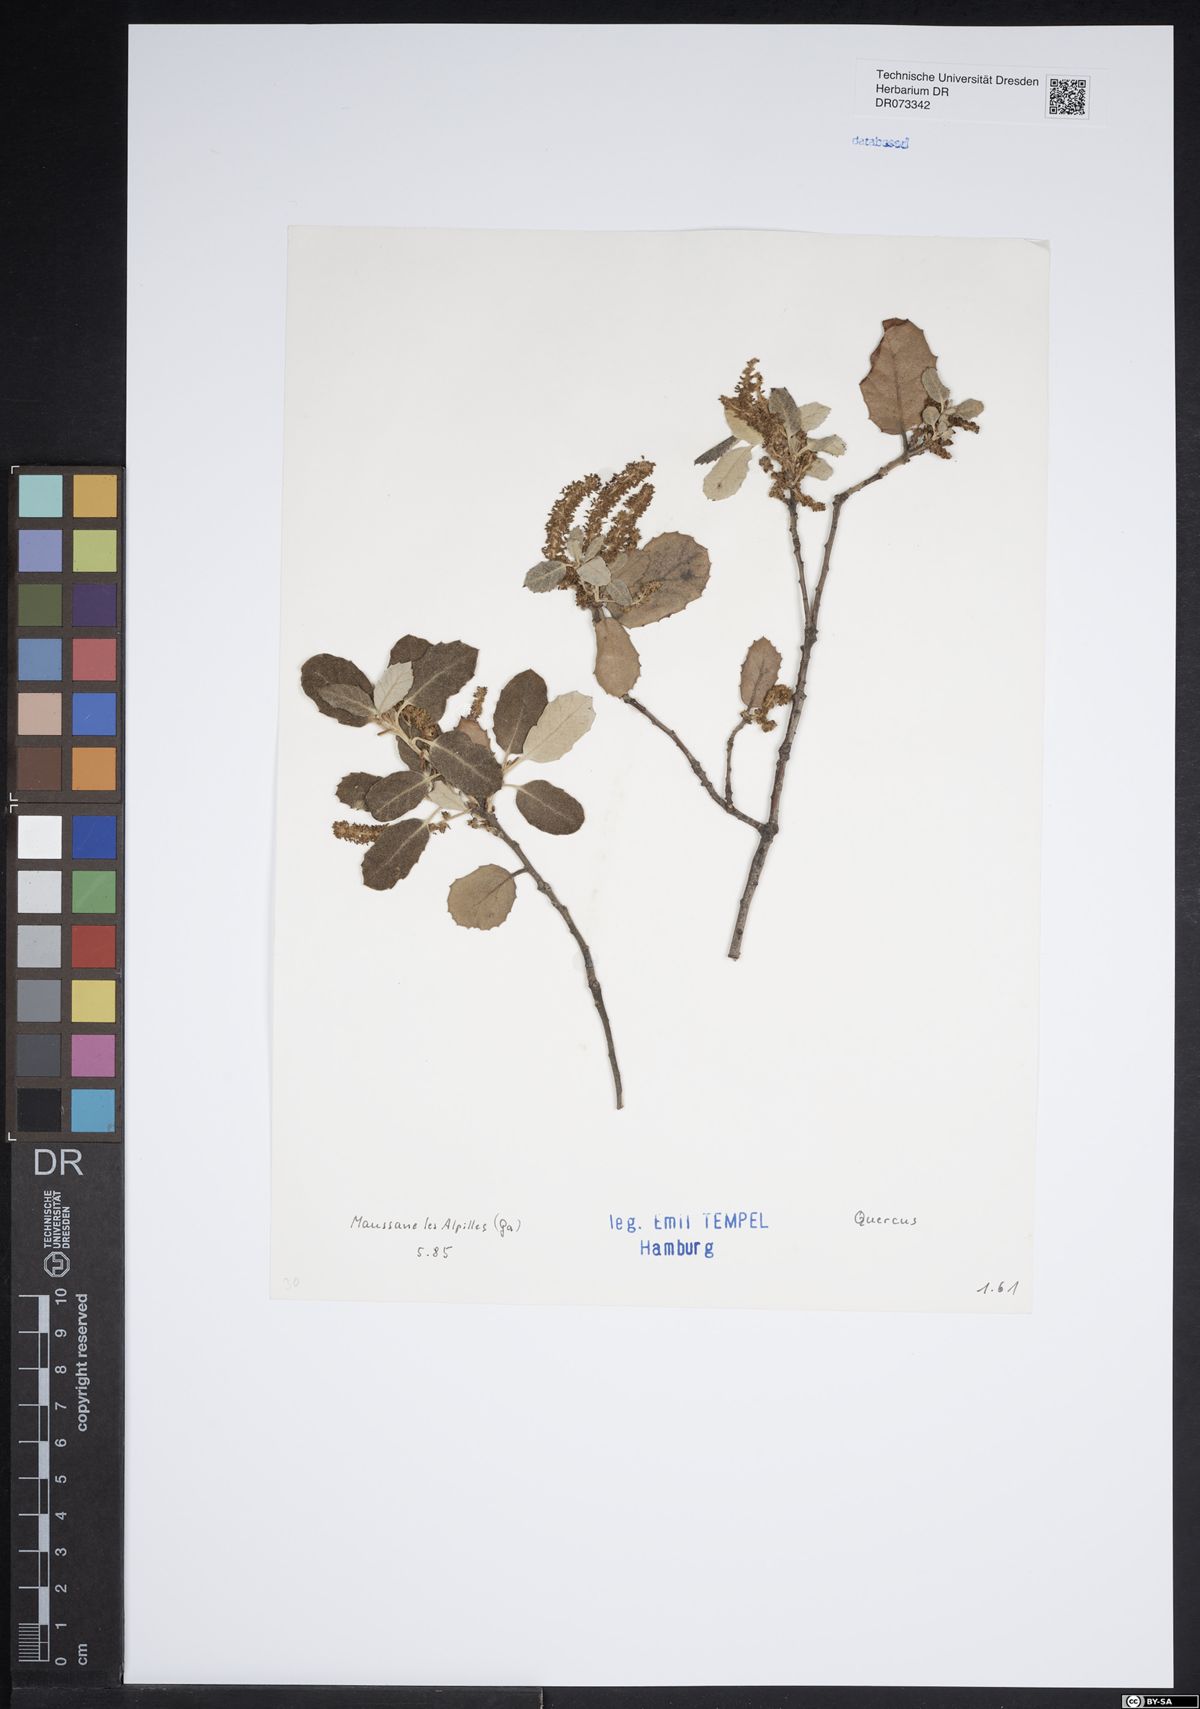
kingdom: Plantae
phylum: Tracheophyta
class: Magnoliopsida
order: Fagales
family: Fagaceae
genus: Quercus
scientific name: Quercus
